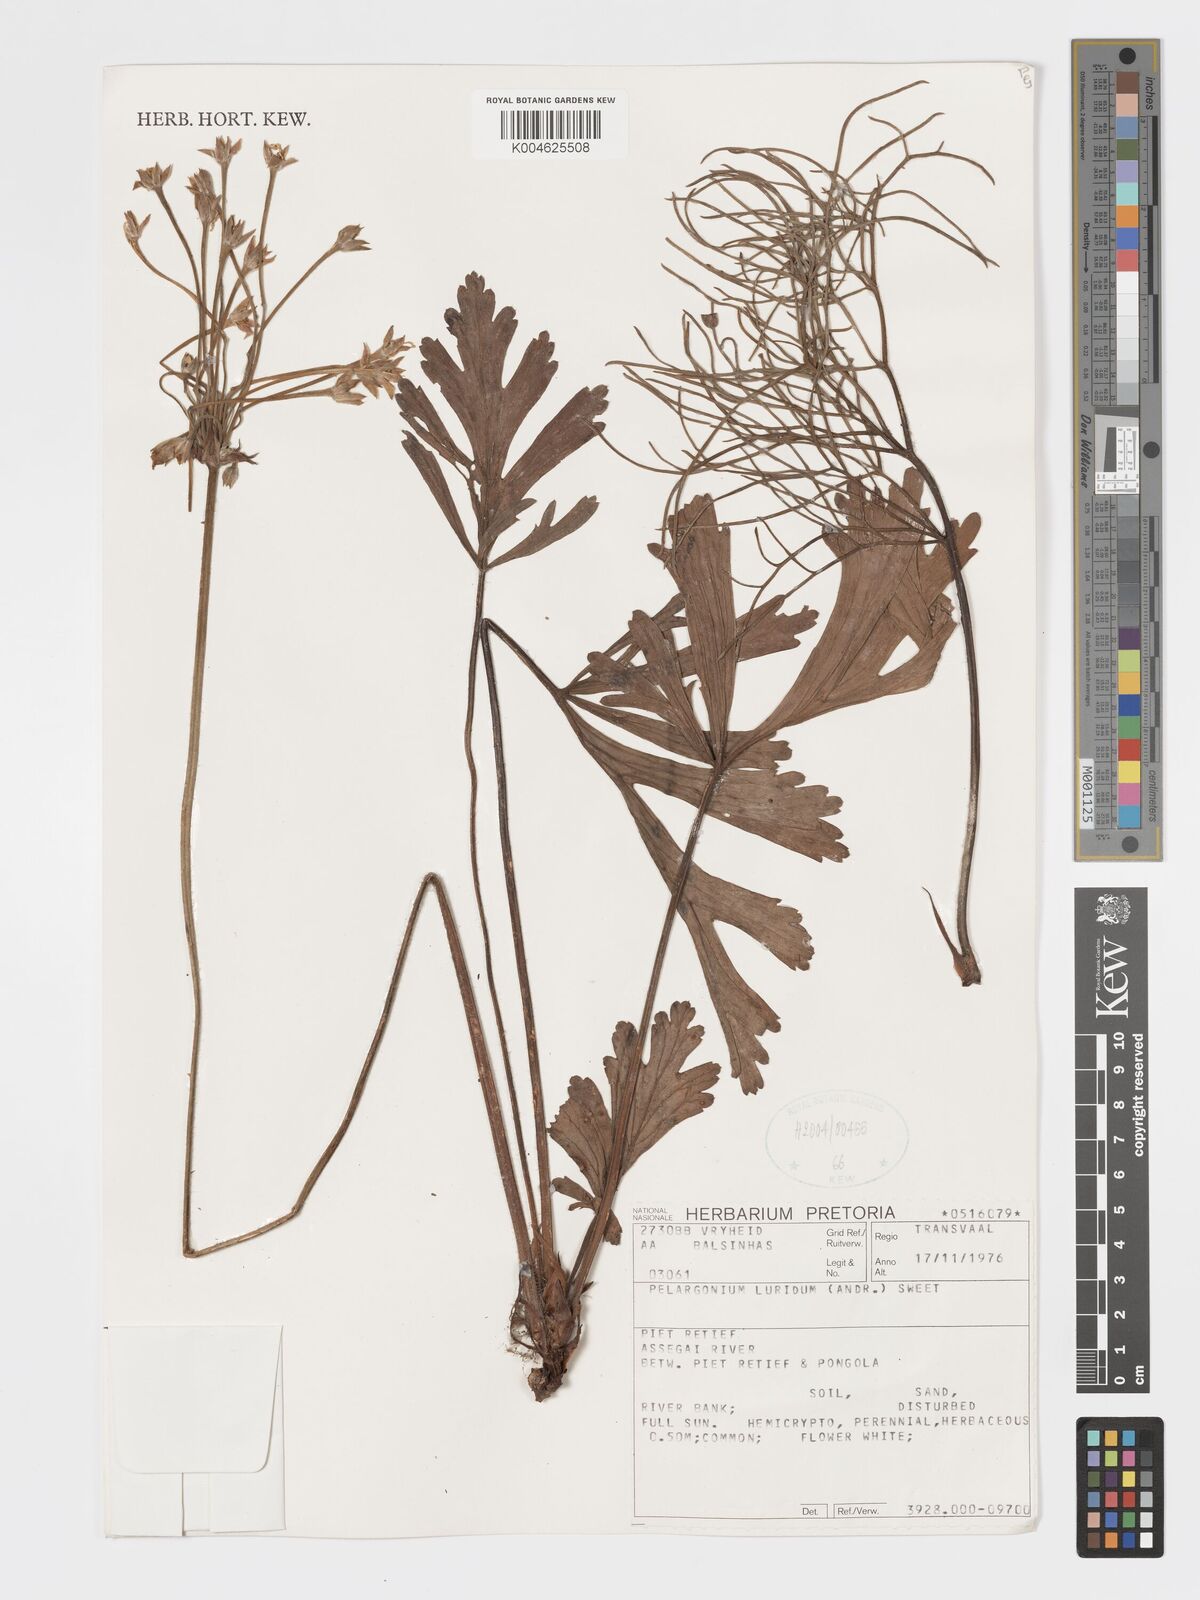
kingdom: Plantae
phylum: Tracheophyta
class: Magnoliopsida
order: Geraniales
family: Geraniaceae
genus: Pelargonium
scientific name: Pelargonium luridum
